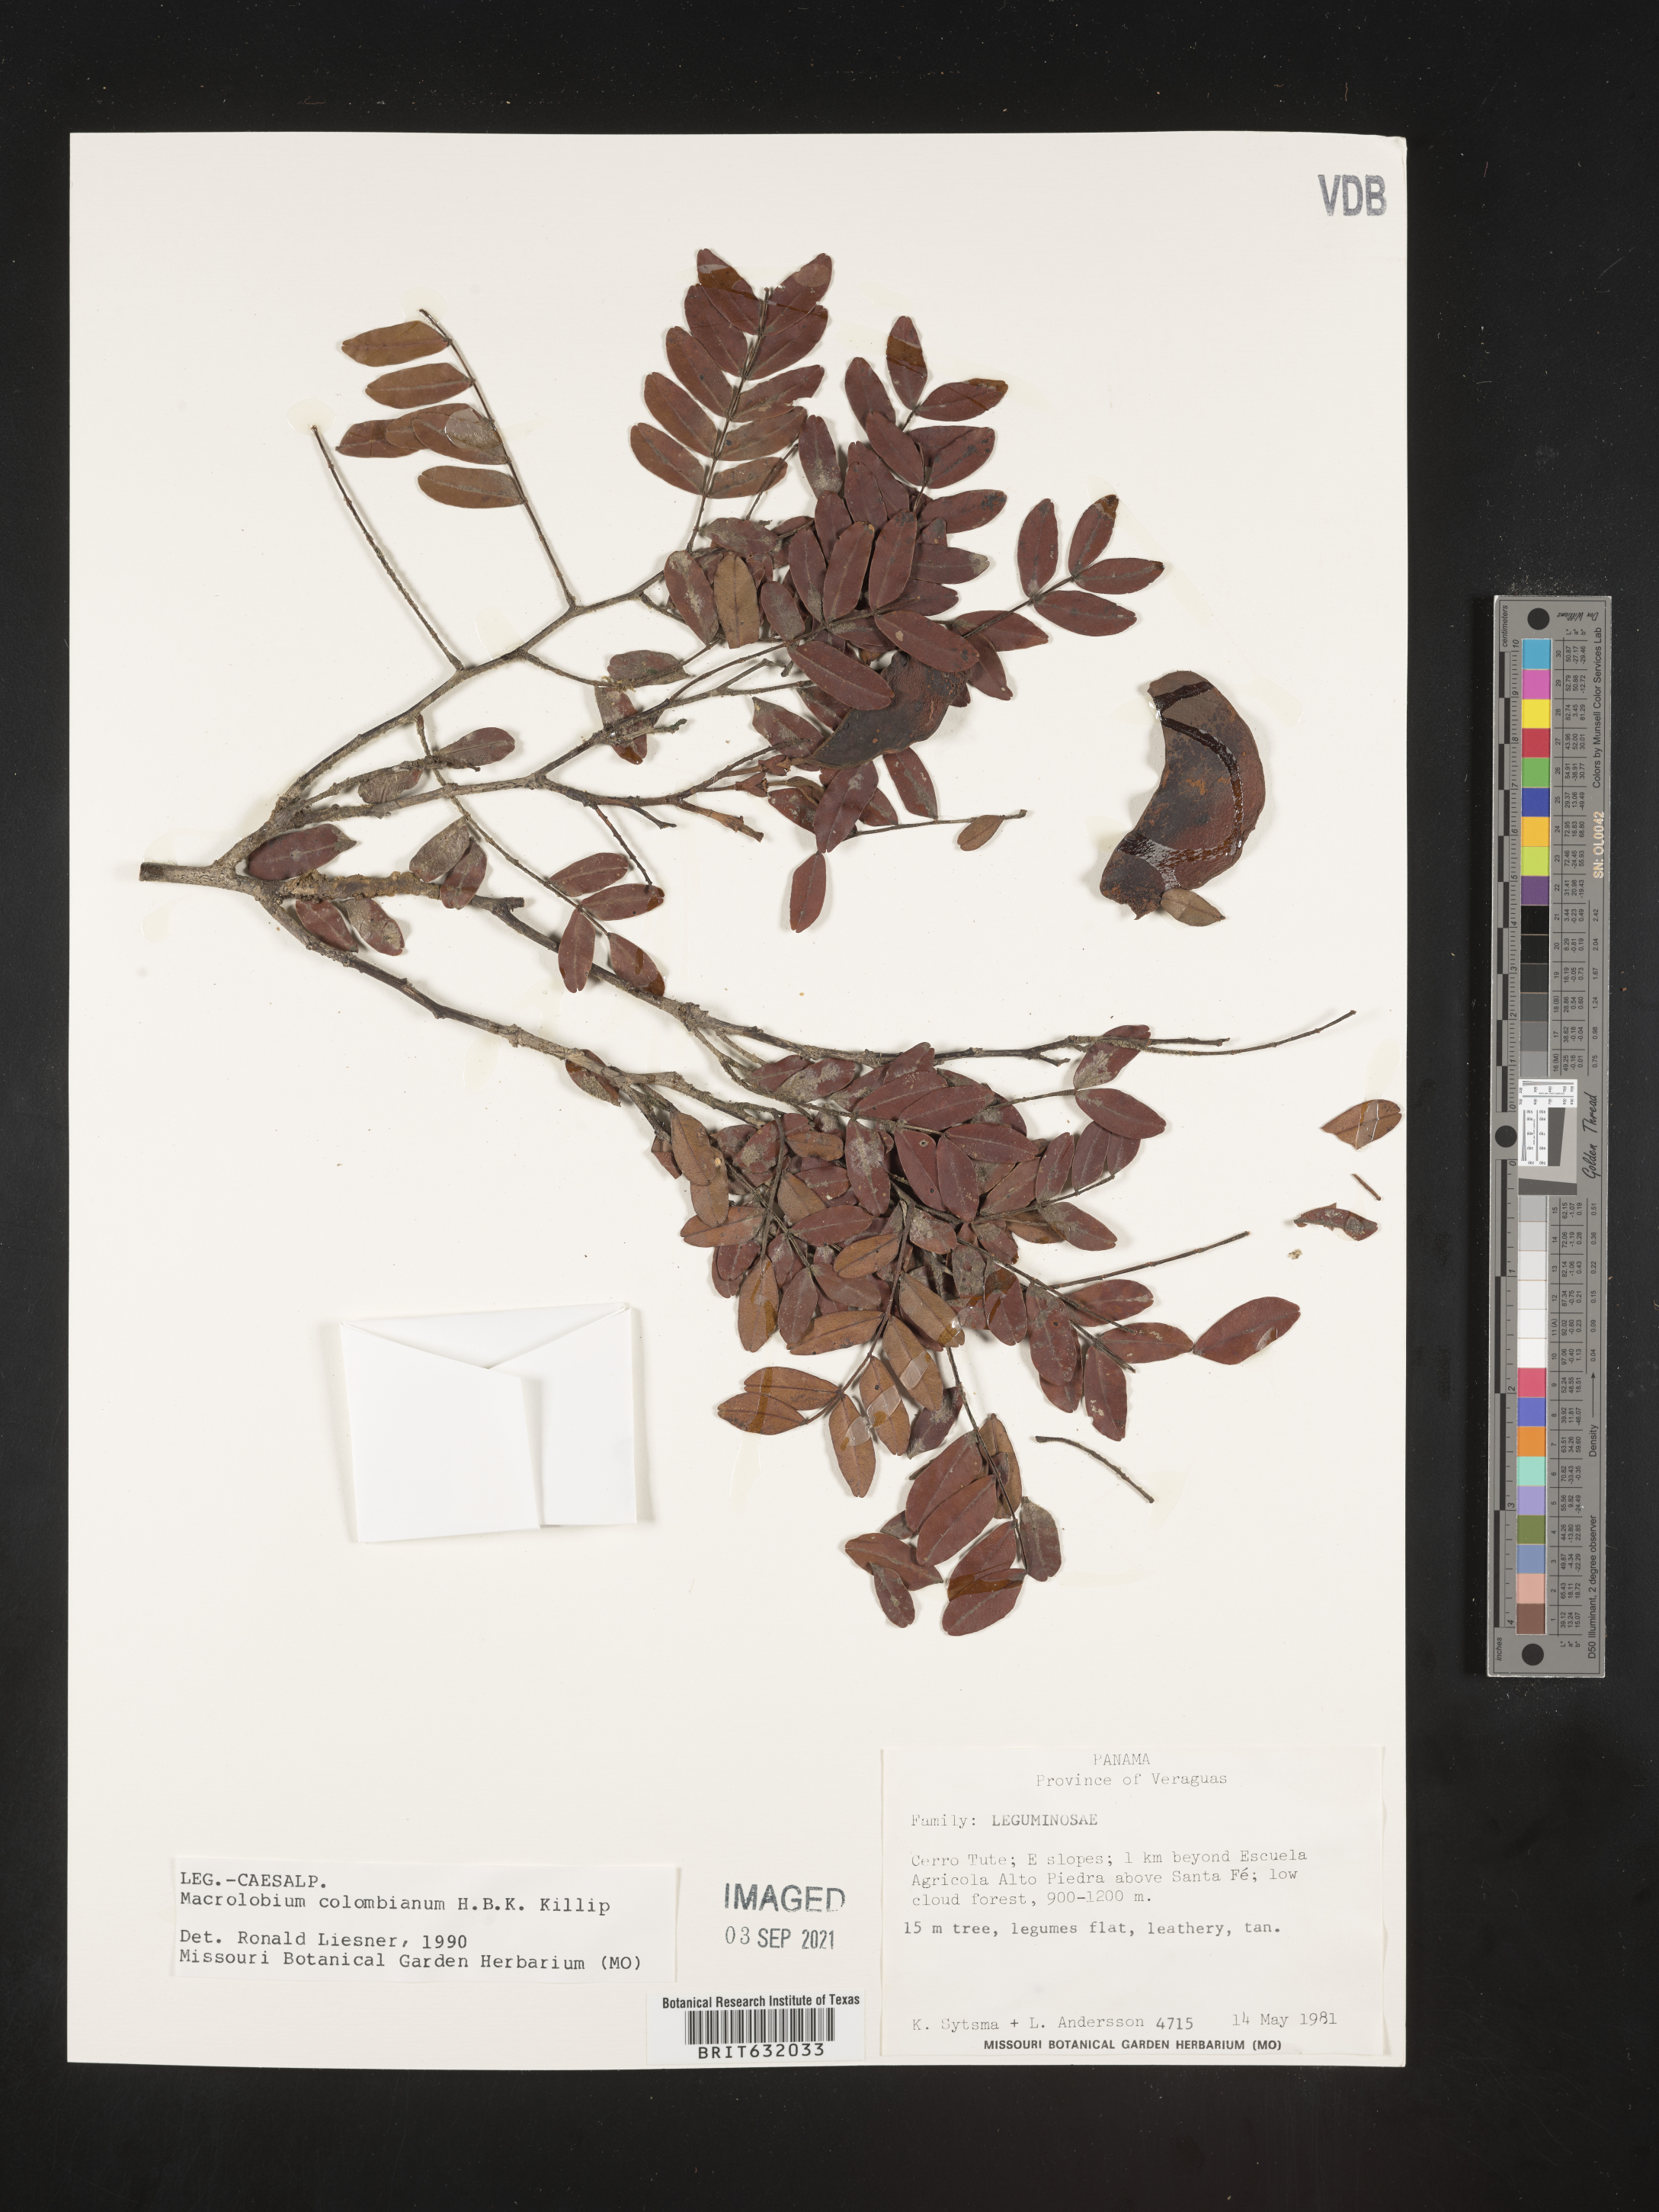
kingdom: Plantae
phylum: Tracheophyta
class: Magnoliopsida
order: Fabales
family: Fabaceae
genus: Macrolobium
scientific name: Macrolobium
